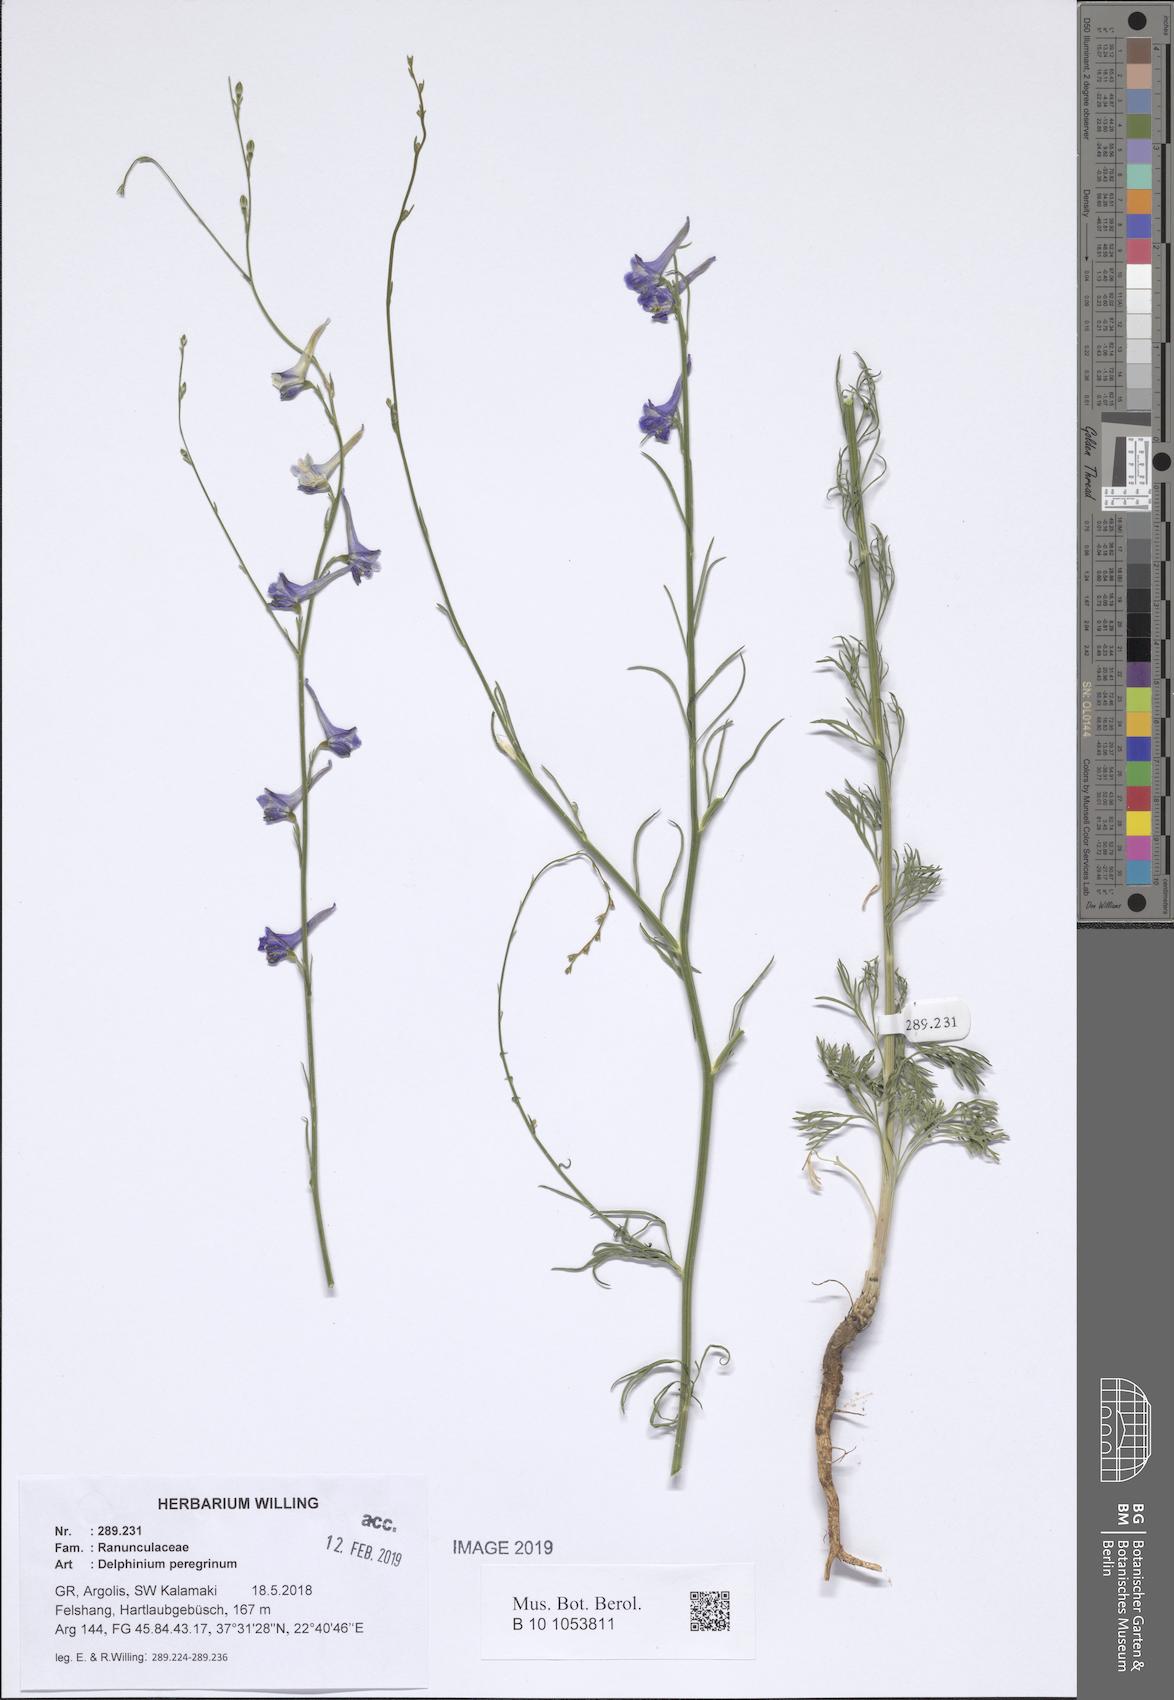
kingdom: Plantae
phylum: Tracheophyta
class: Magnoliopsida
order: Ranunculales
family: Ranunculaceae
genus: Delphinium
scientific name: Delphinium peregrinum
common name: Violet larkspur
